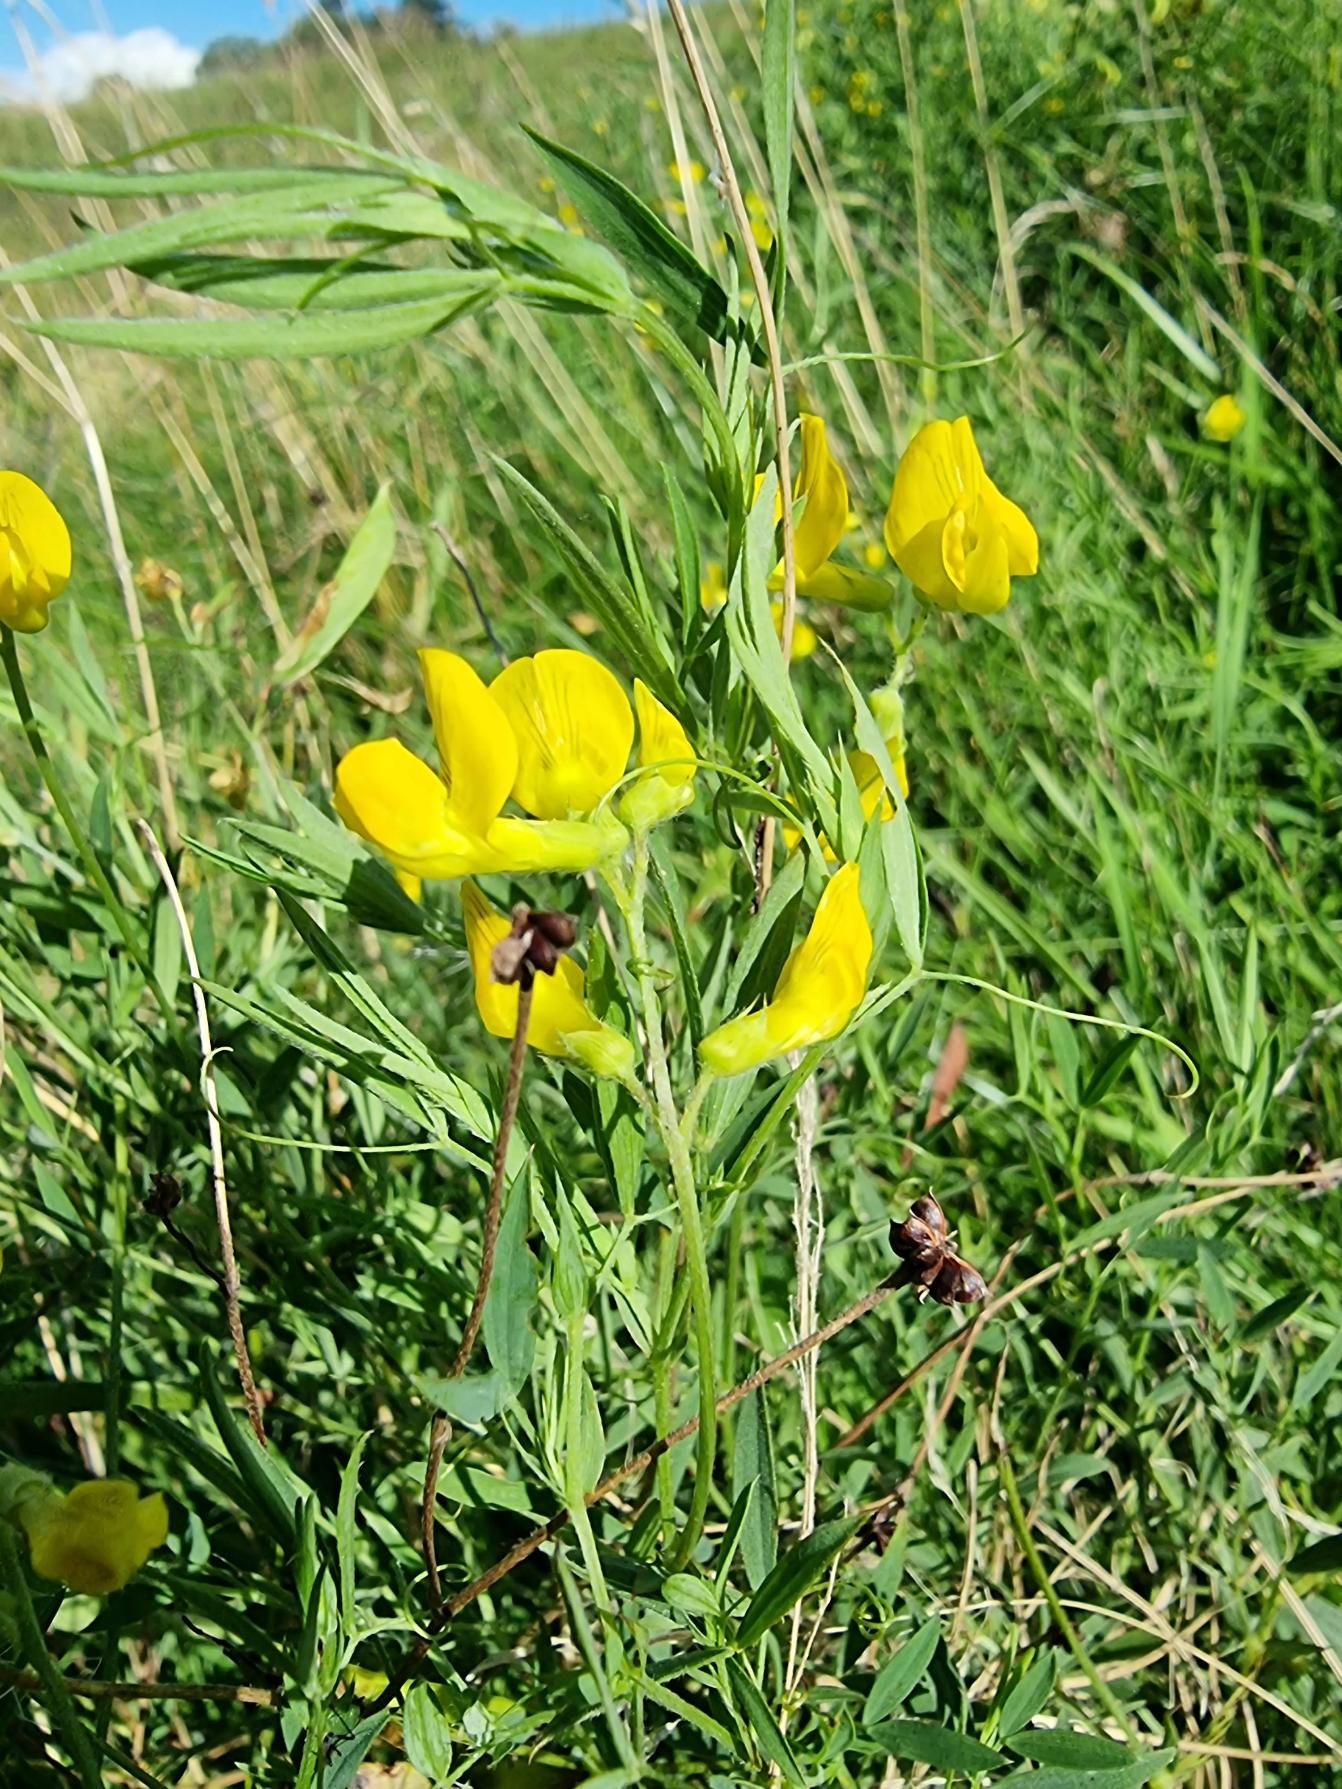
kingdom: Plantae
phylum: Tracheophyta
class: Magnoliopsida
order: Fabales
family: Fabaceae
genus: Lathyrus
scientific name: Lathyrus pratensis
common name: Gul fladbælg
